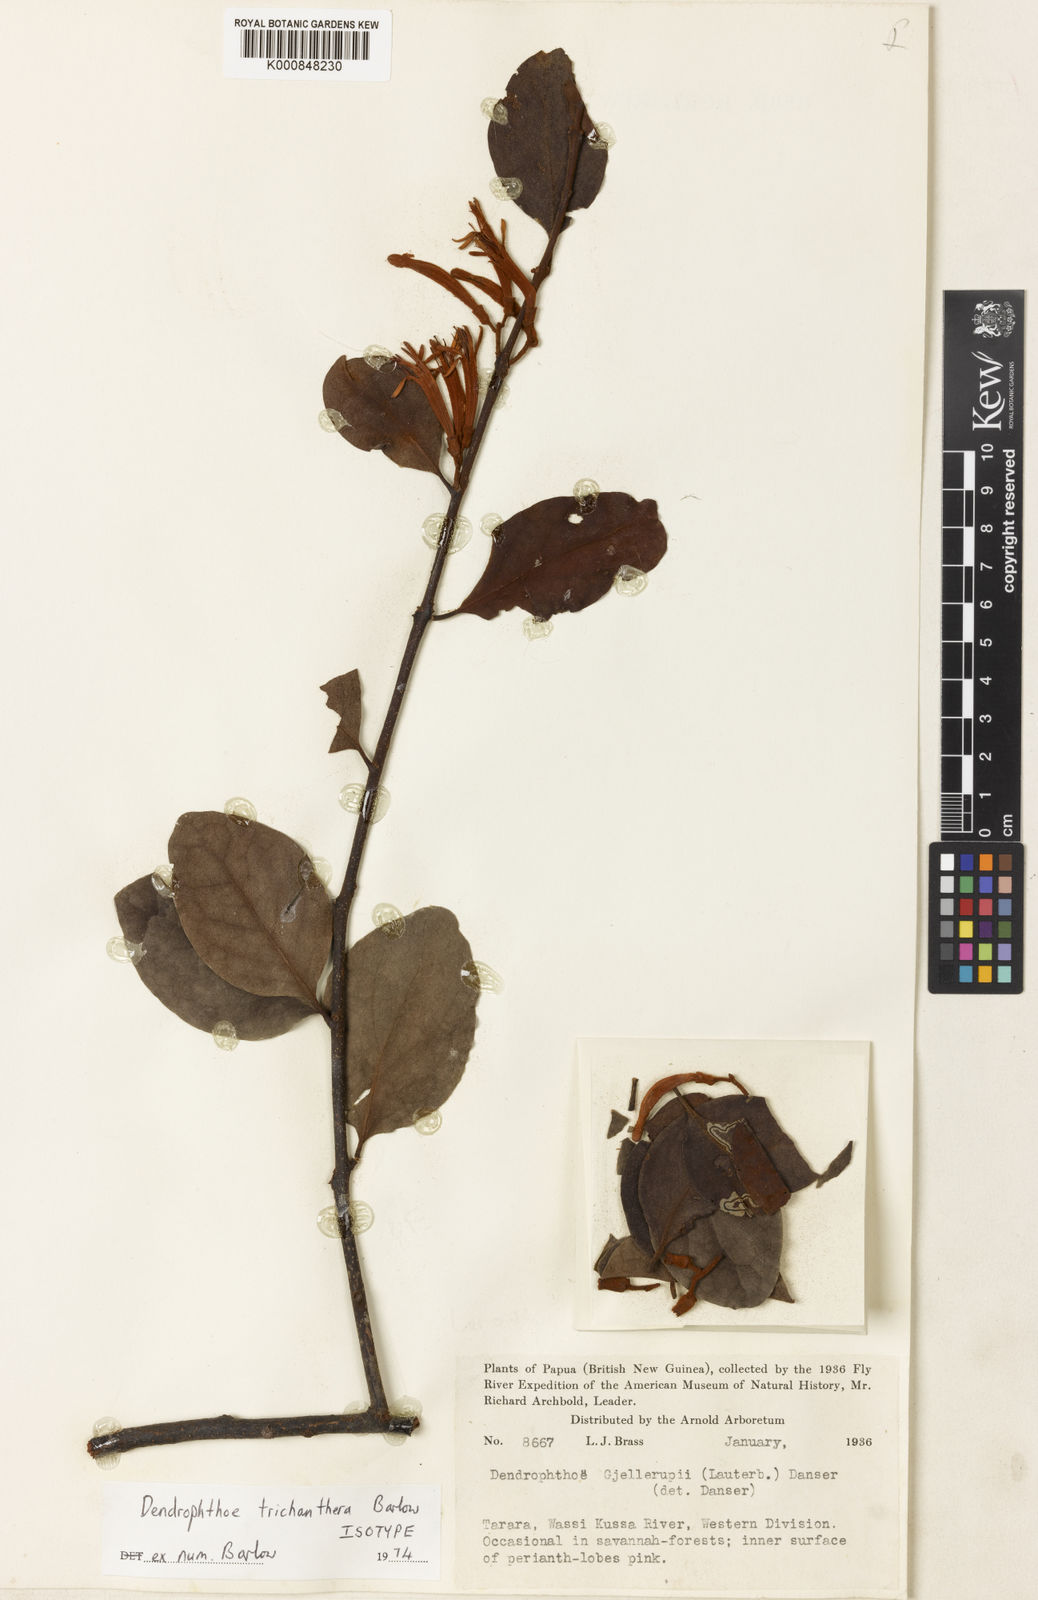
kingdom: Plantae
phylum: Tracheophyta
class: Magnoliopsida
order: Santalales
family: Loranthaceae
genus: Dendrophthoe
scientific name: Dendrophthoe trichanthera
